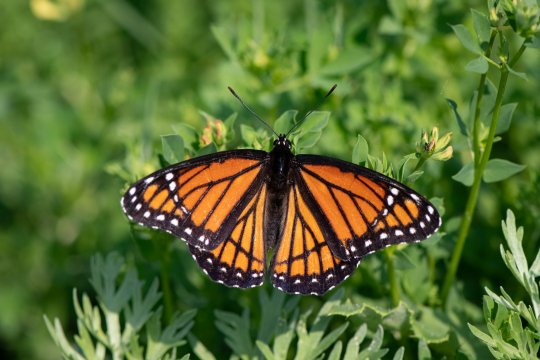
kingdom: Animalia
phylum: Arthropoda
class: Insecta
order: Lepidoptera
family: Nymphalidae
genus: Limenitis
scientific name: Limenitis archippus
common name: Viceroy
